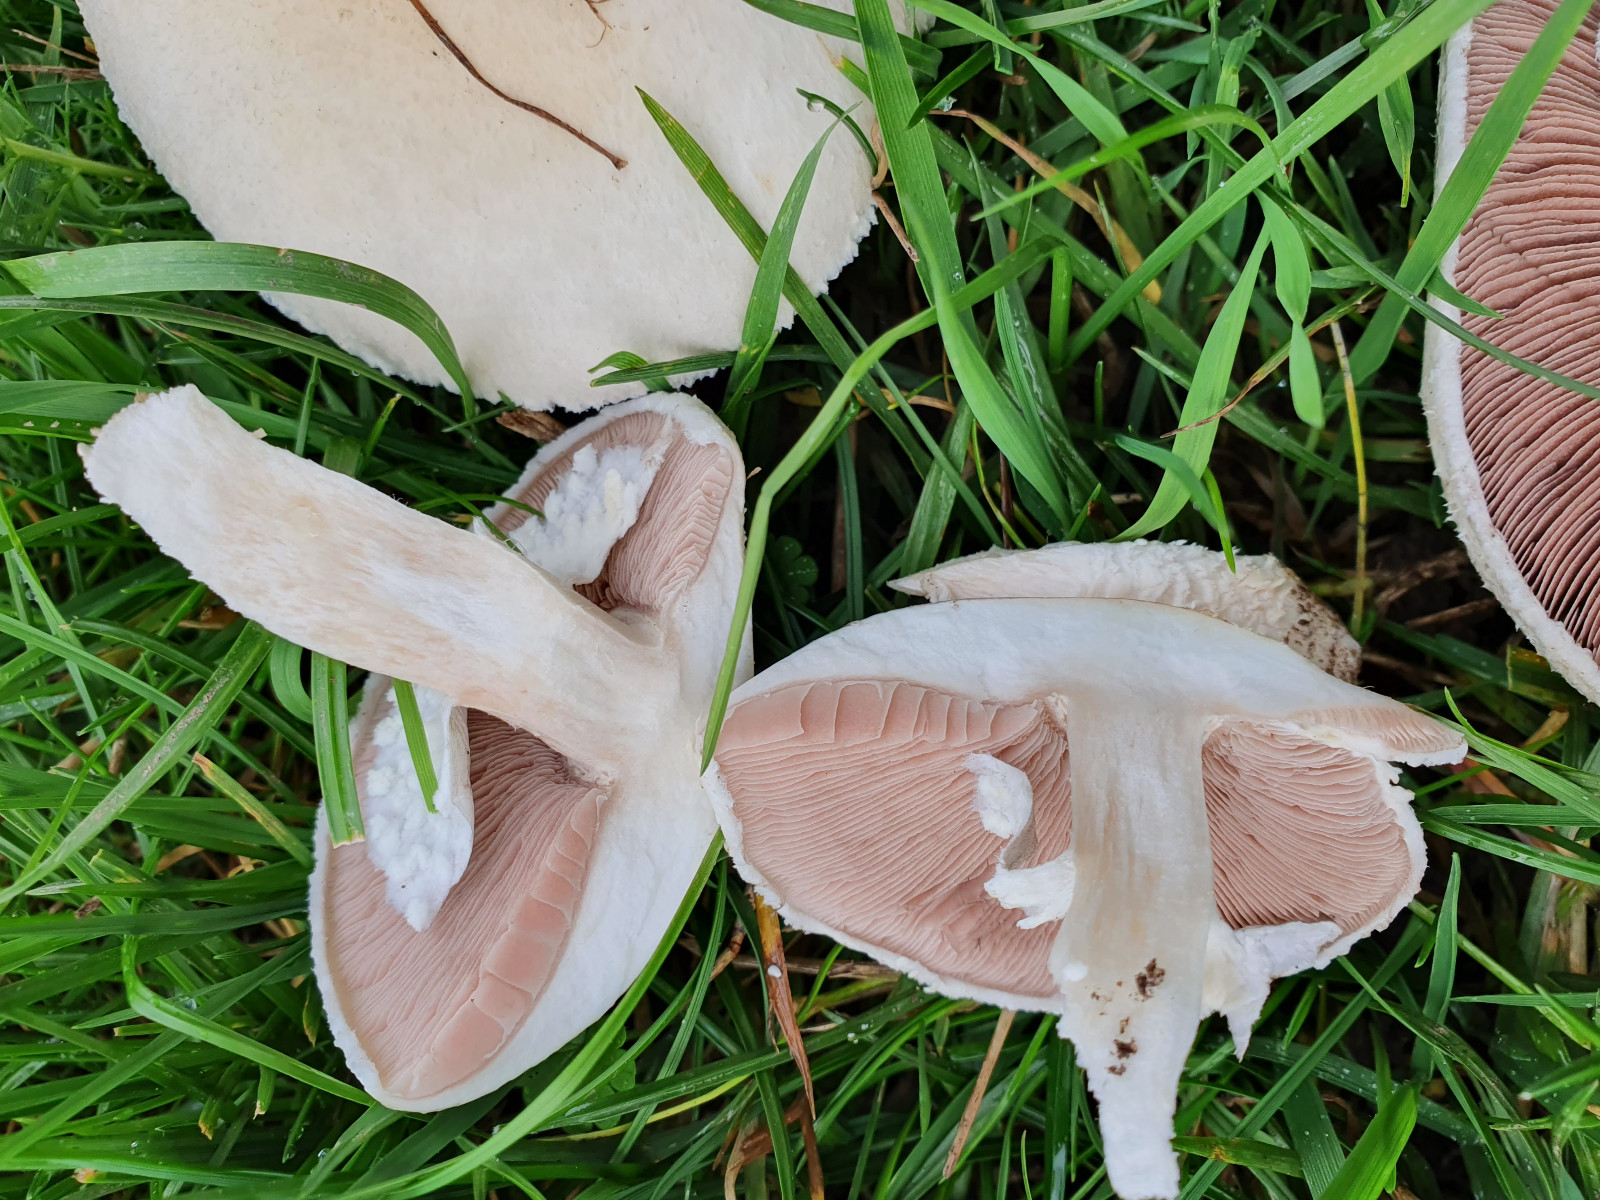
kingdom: Fungi
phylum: Basidiomycota
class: Agaricomycetes
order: Agaricales
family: Agaricaceae
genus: Agaricus
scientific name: Agaricus arvensis
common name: ager-champignon
